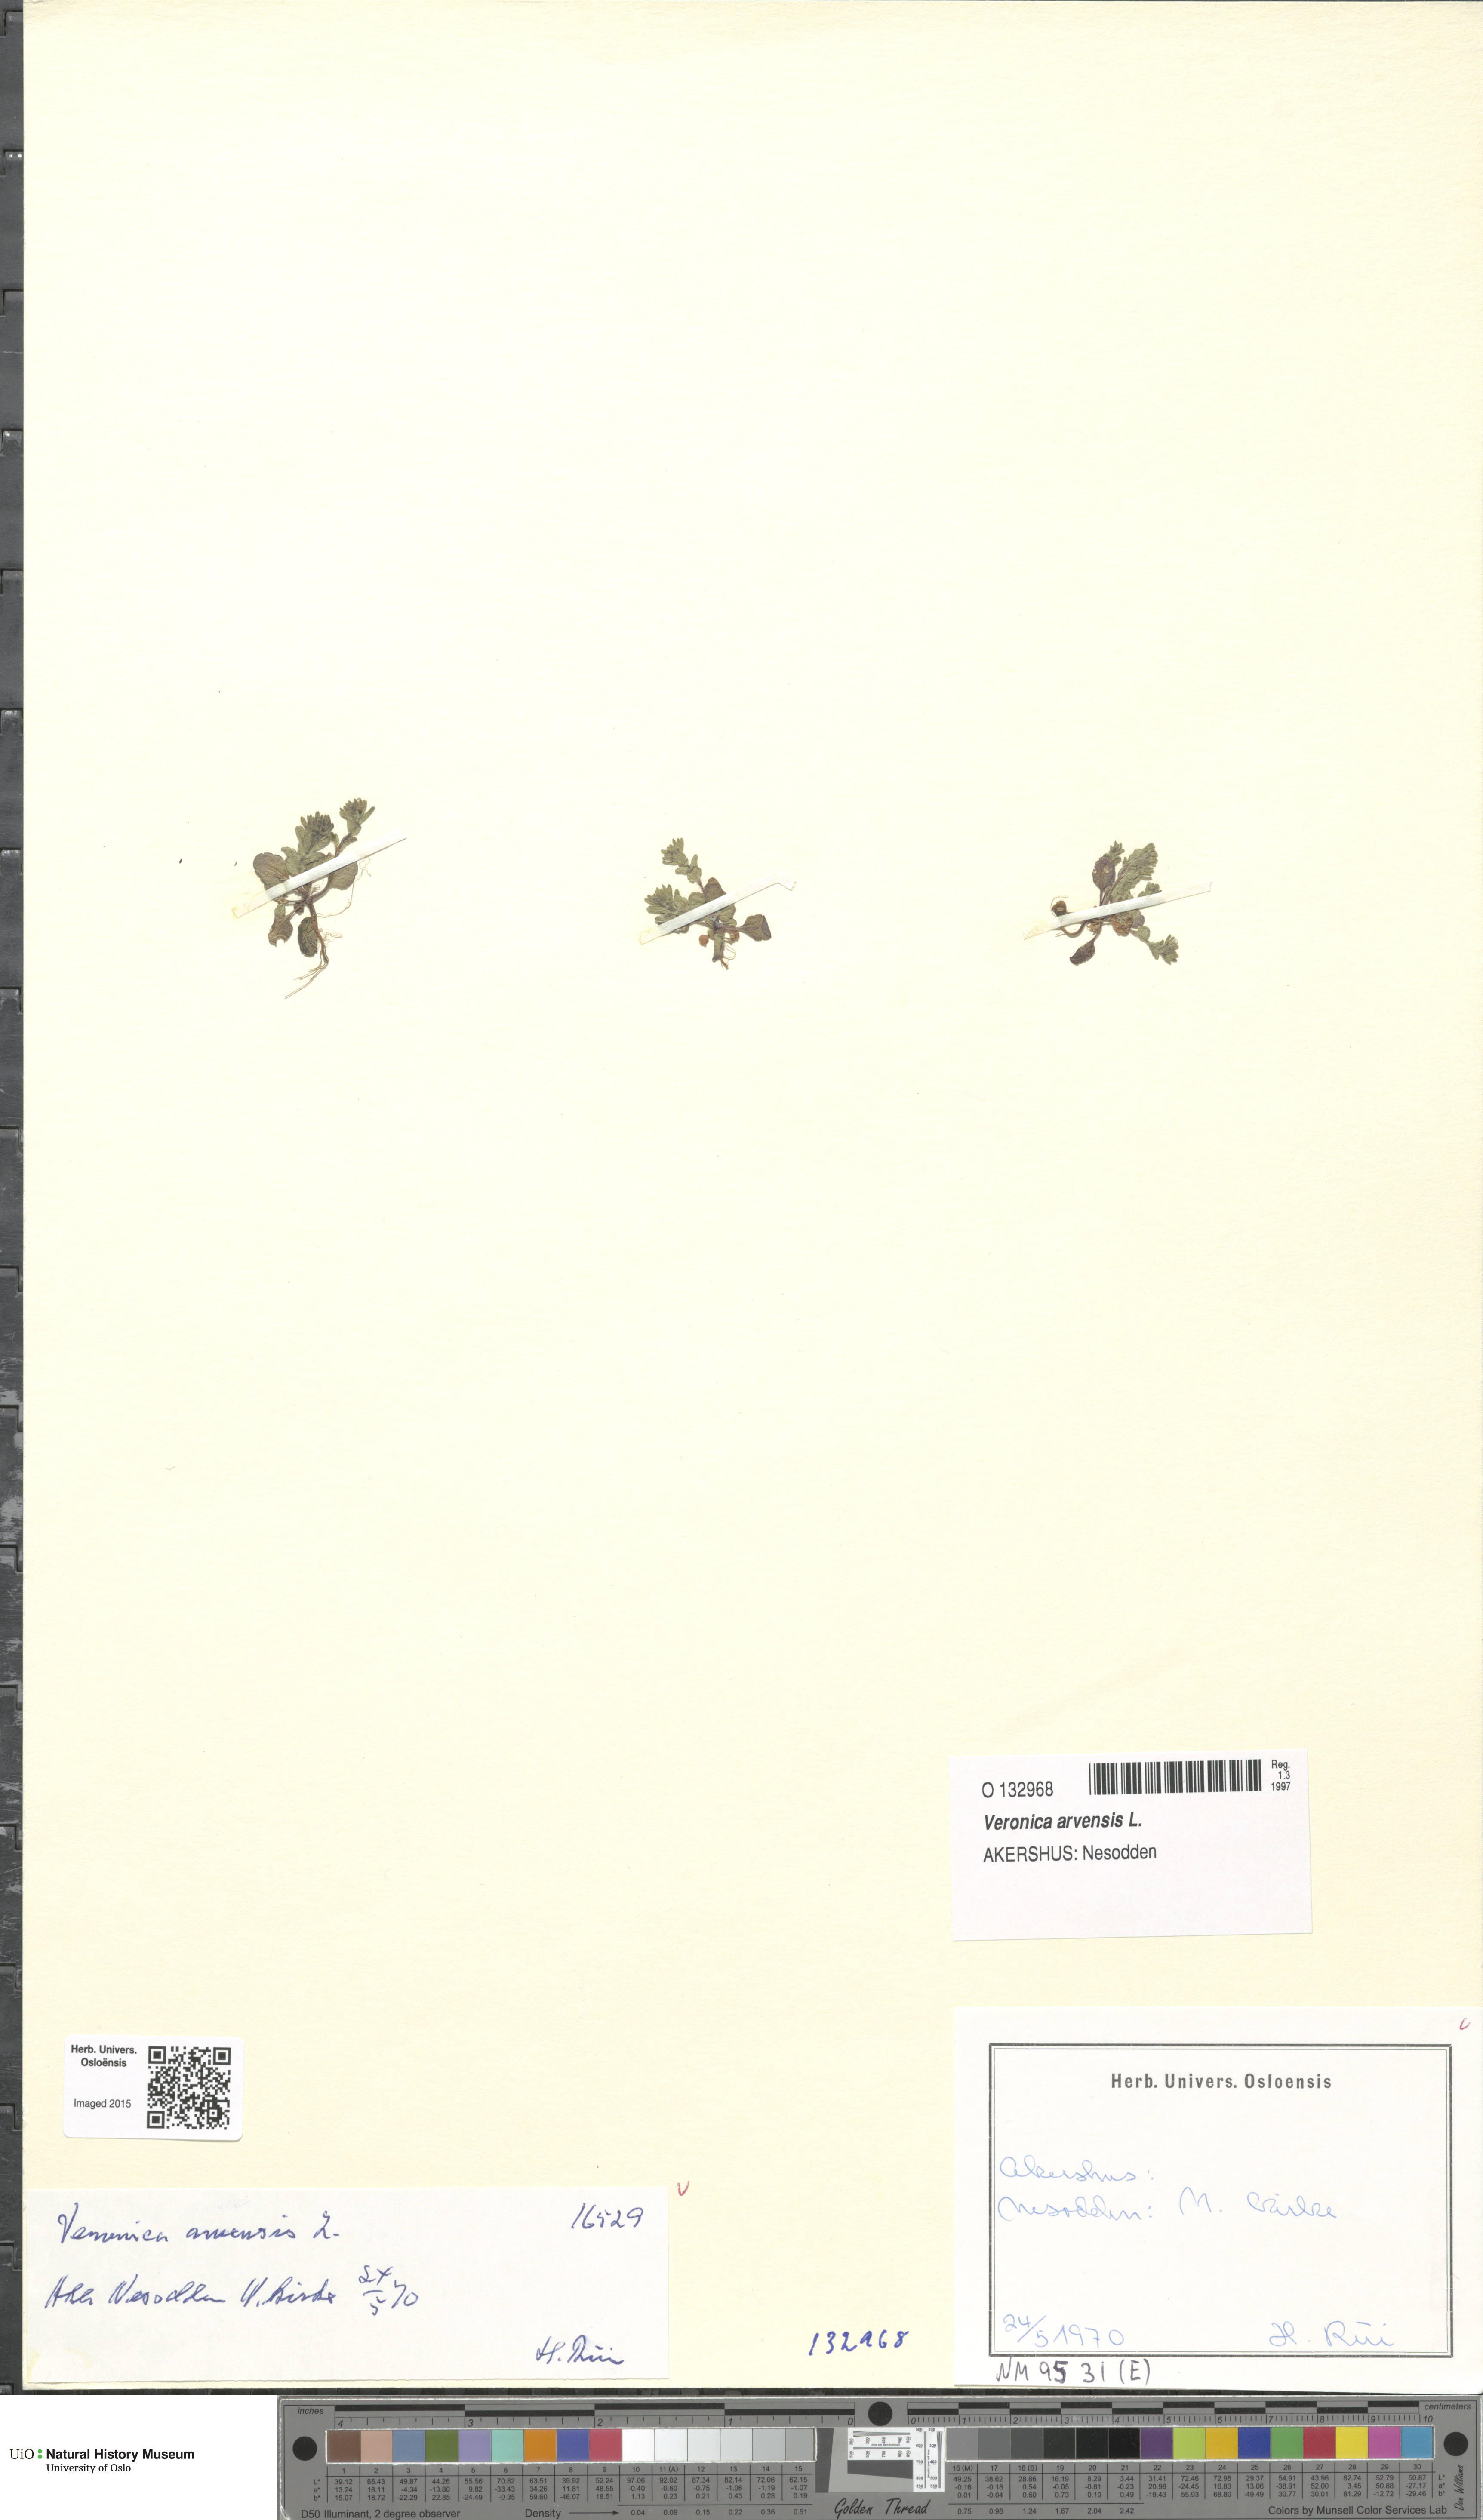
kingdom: Plantae
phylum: Tracheophyta
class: Magnoliopsida
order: Lamiales
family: Plantaginaceae
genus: Veronica
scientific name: Veronica arvensis
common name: Corn speedwell
